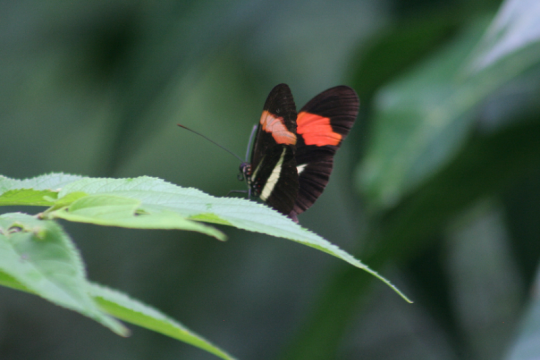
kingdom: Animalia
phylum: Arthropoda
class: Insecta
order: Lepidoptera
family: Nymphalidae
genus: Heliconius
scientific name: Heliconius erato
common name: Erato Heliconian
